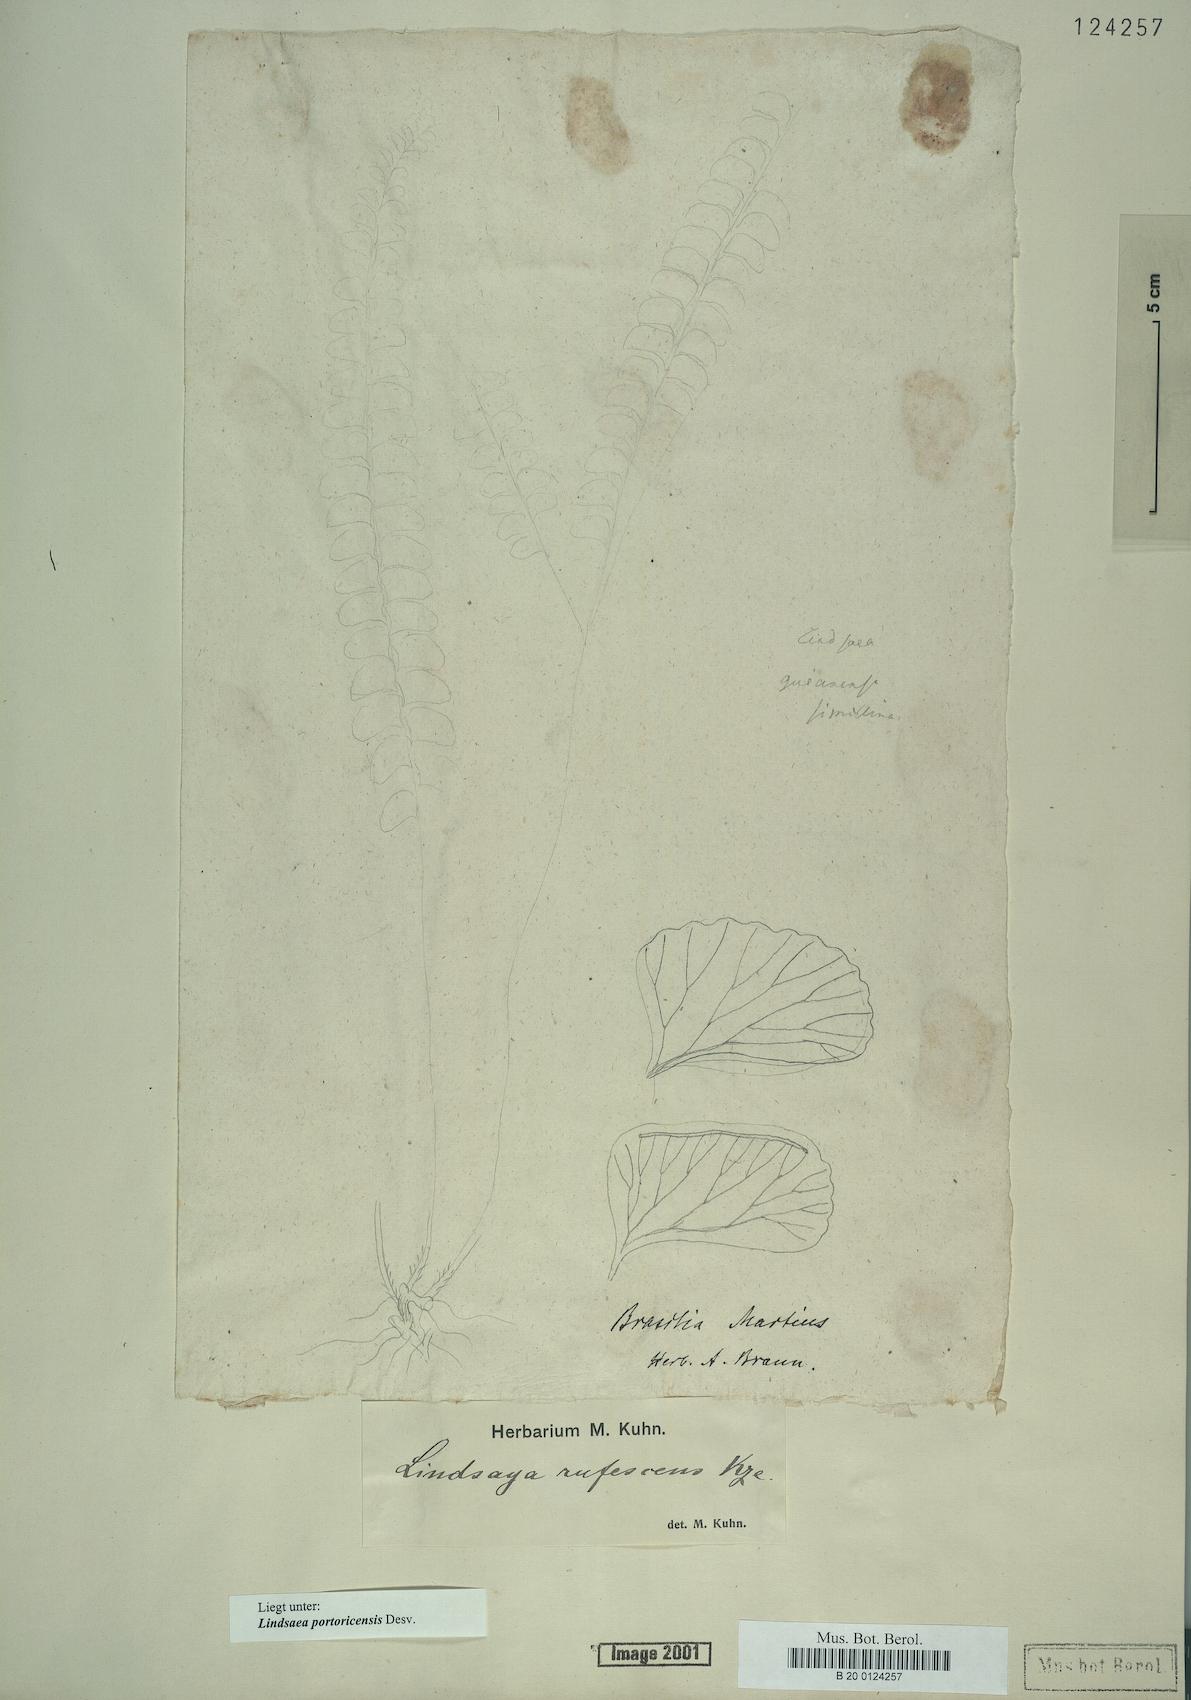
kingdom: Plantae
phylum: Tracheophyta
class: Polypodiopsida
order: Polypodiales
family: Lindsaeaceae
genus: Lindsaea
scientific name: Lindsaea portoricensis
